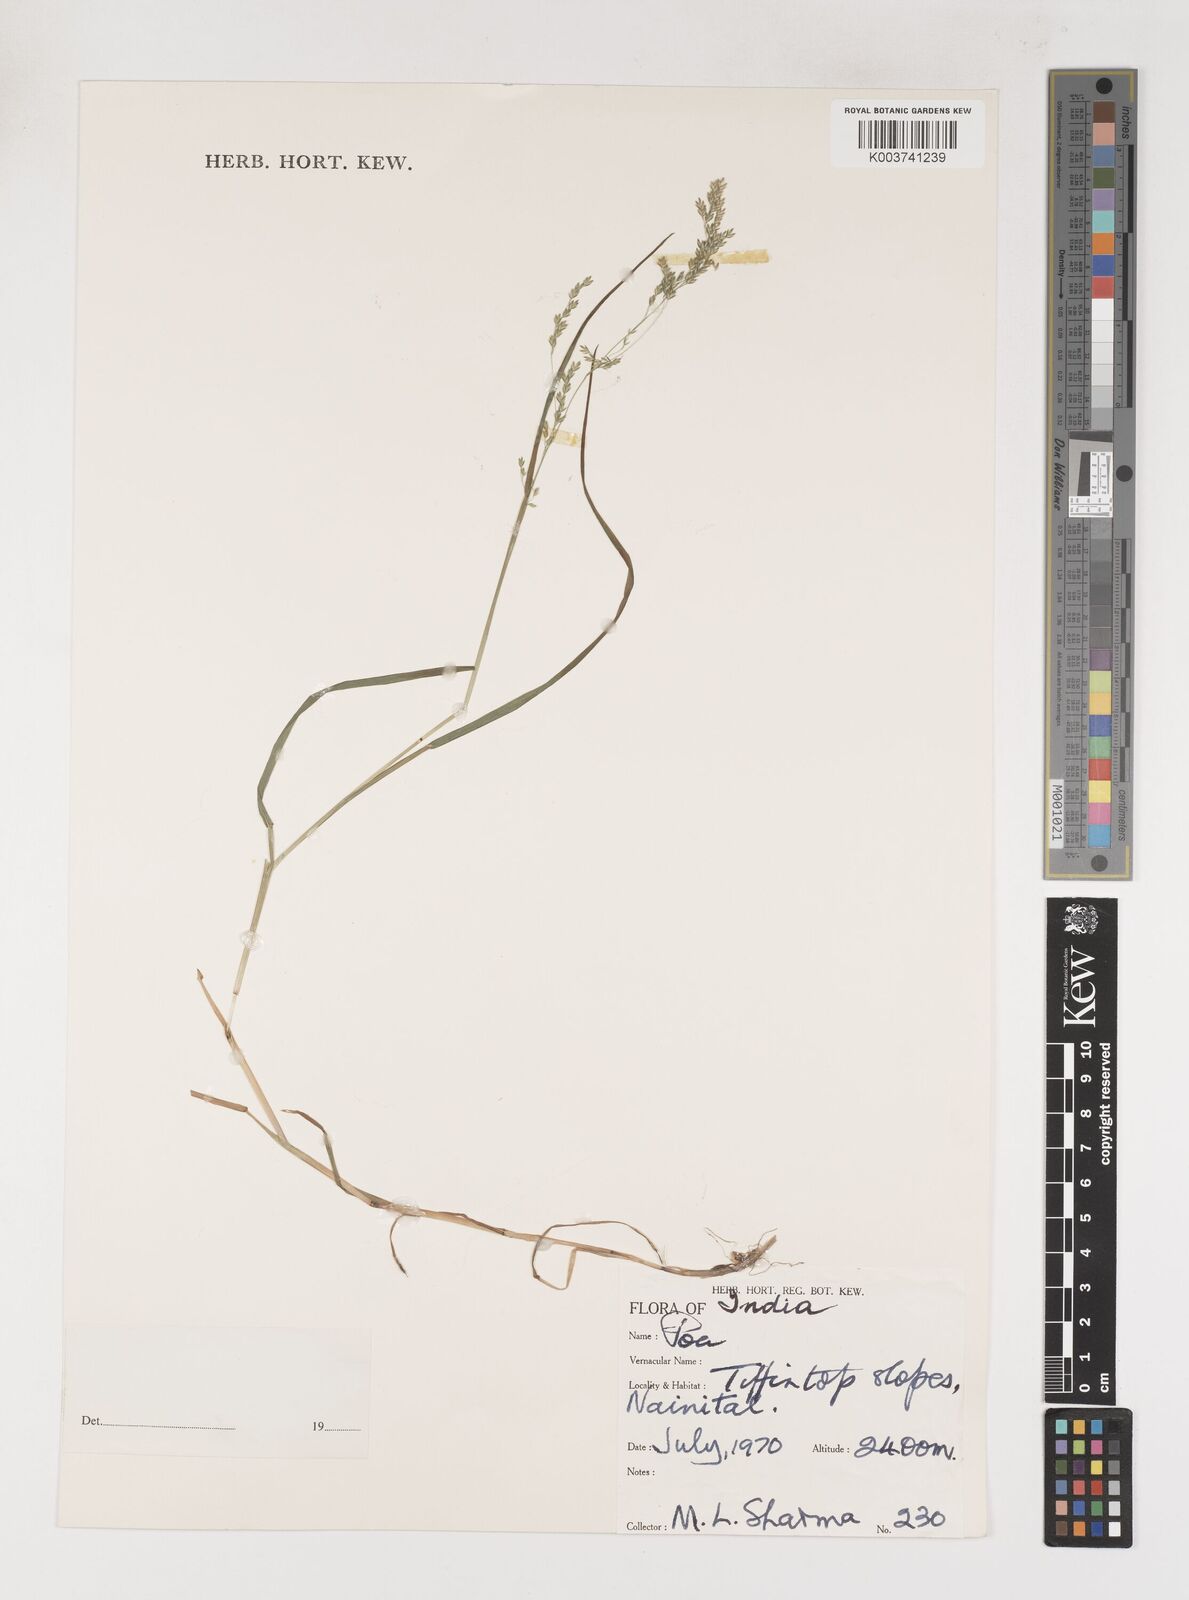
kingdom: Plantae
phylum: Tracheophyta
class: Liliopsida
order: Poales
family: Poaceae
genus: Poa
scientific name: Poa
